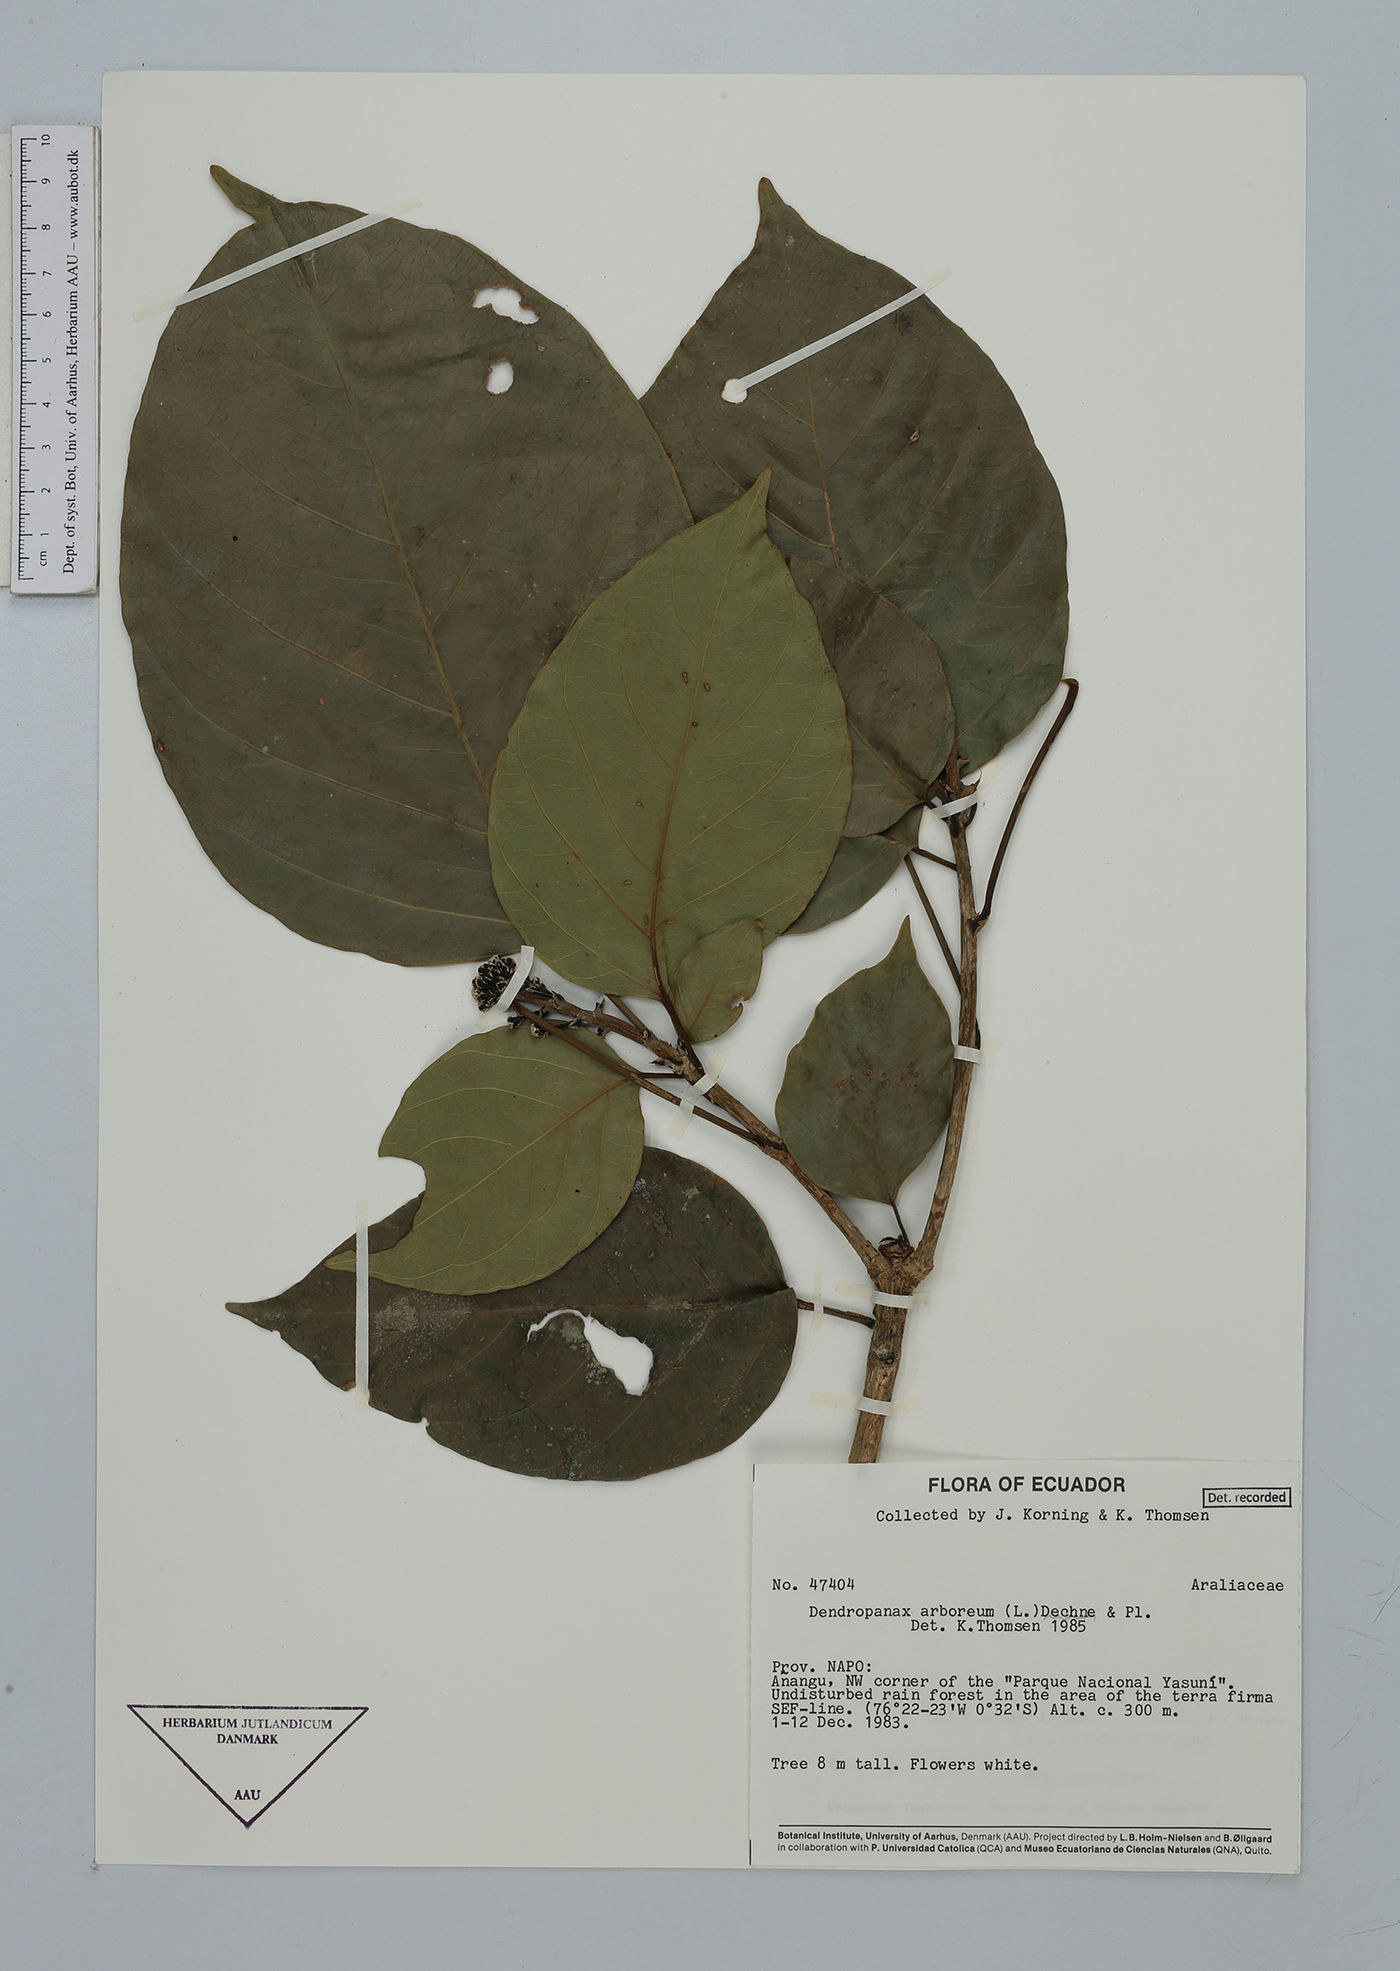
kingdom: Plantae
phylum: Tracheophyta
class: Magnoliopsida
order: Apiales
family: Araliaceae
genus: Dendropanax
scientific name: Dendropanax arboreus
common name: Potato-wood
